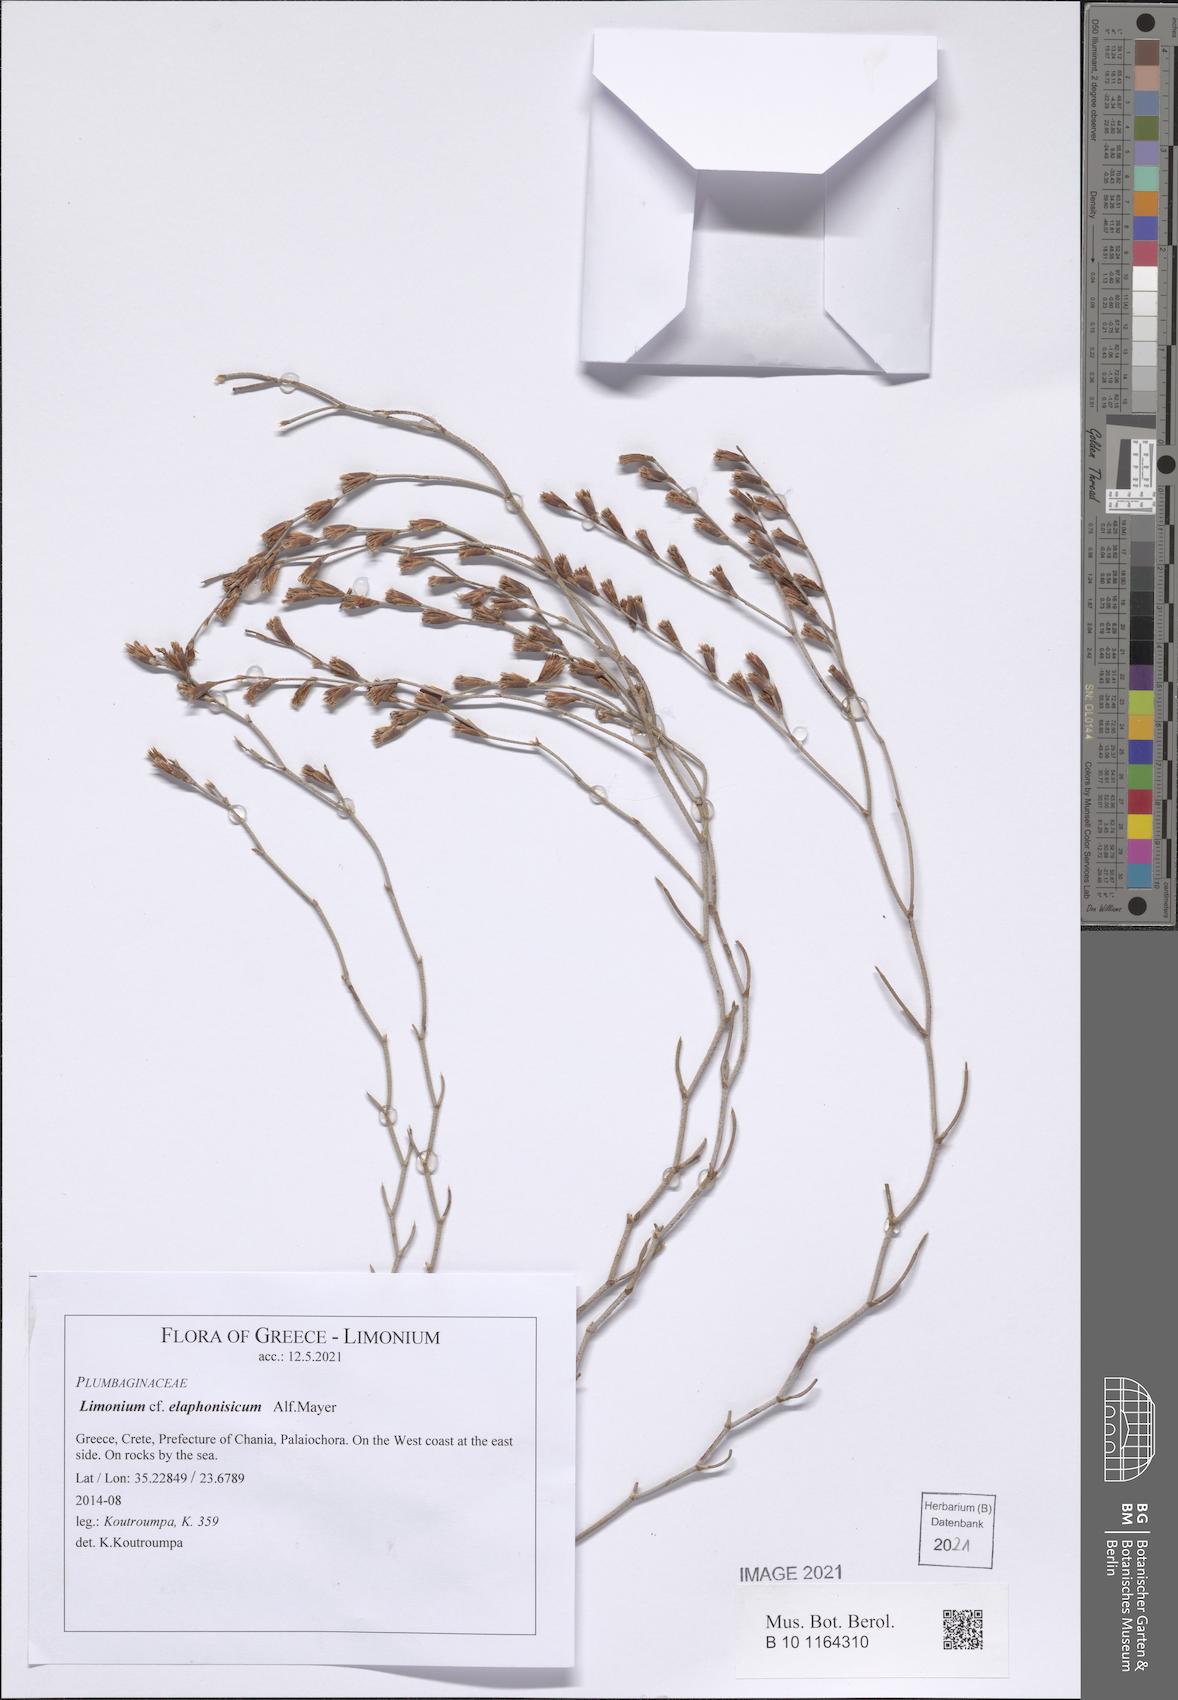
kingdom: Plantae
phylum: Tracheophyta
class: Magnoliopsida
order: Caryophyllales
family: Plumbaginaceae
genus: Limonium
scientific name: Limonium elaphonisicum
